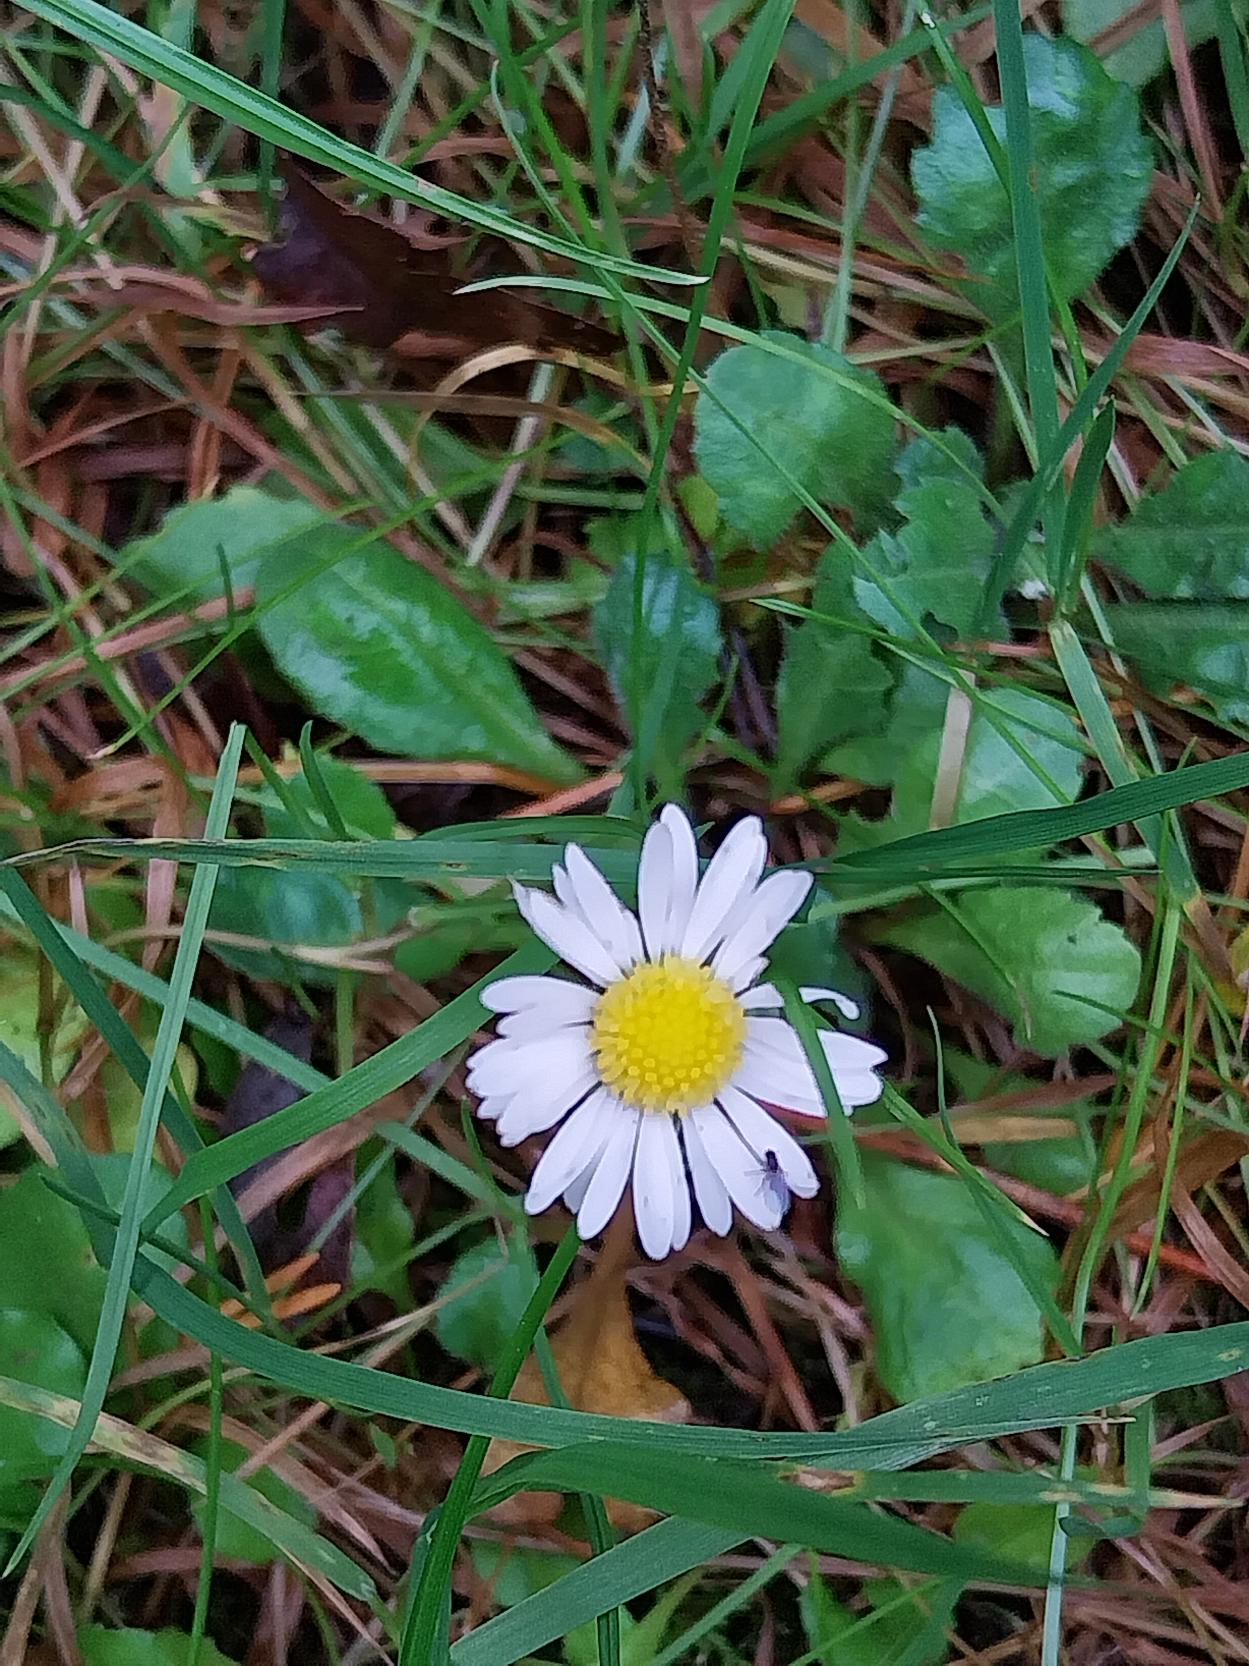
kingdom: Plantae
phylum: Tracheophyta
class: Magnoliopsida
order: Asterales
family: Asteraceae
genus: Bellis
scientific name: Bellis perennis
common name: Tusindfryd
